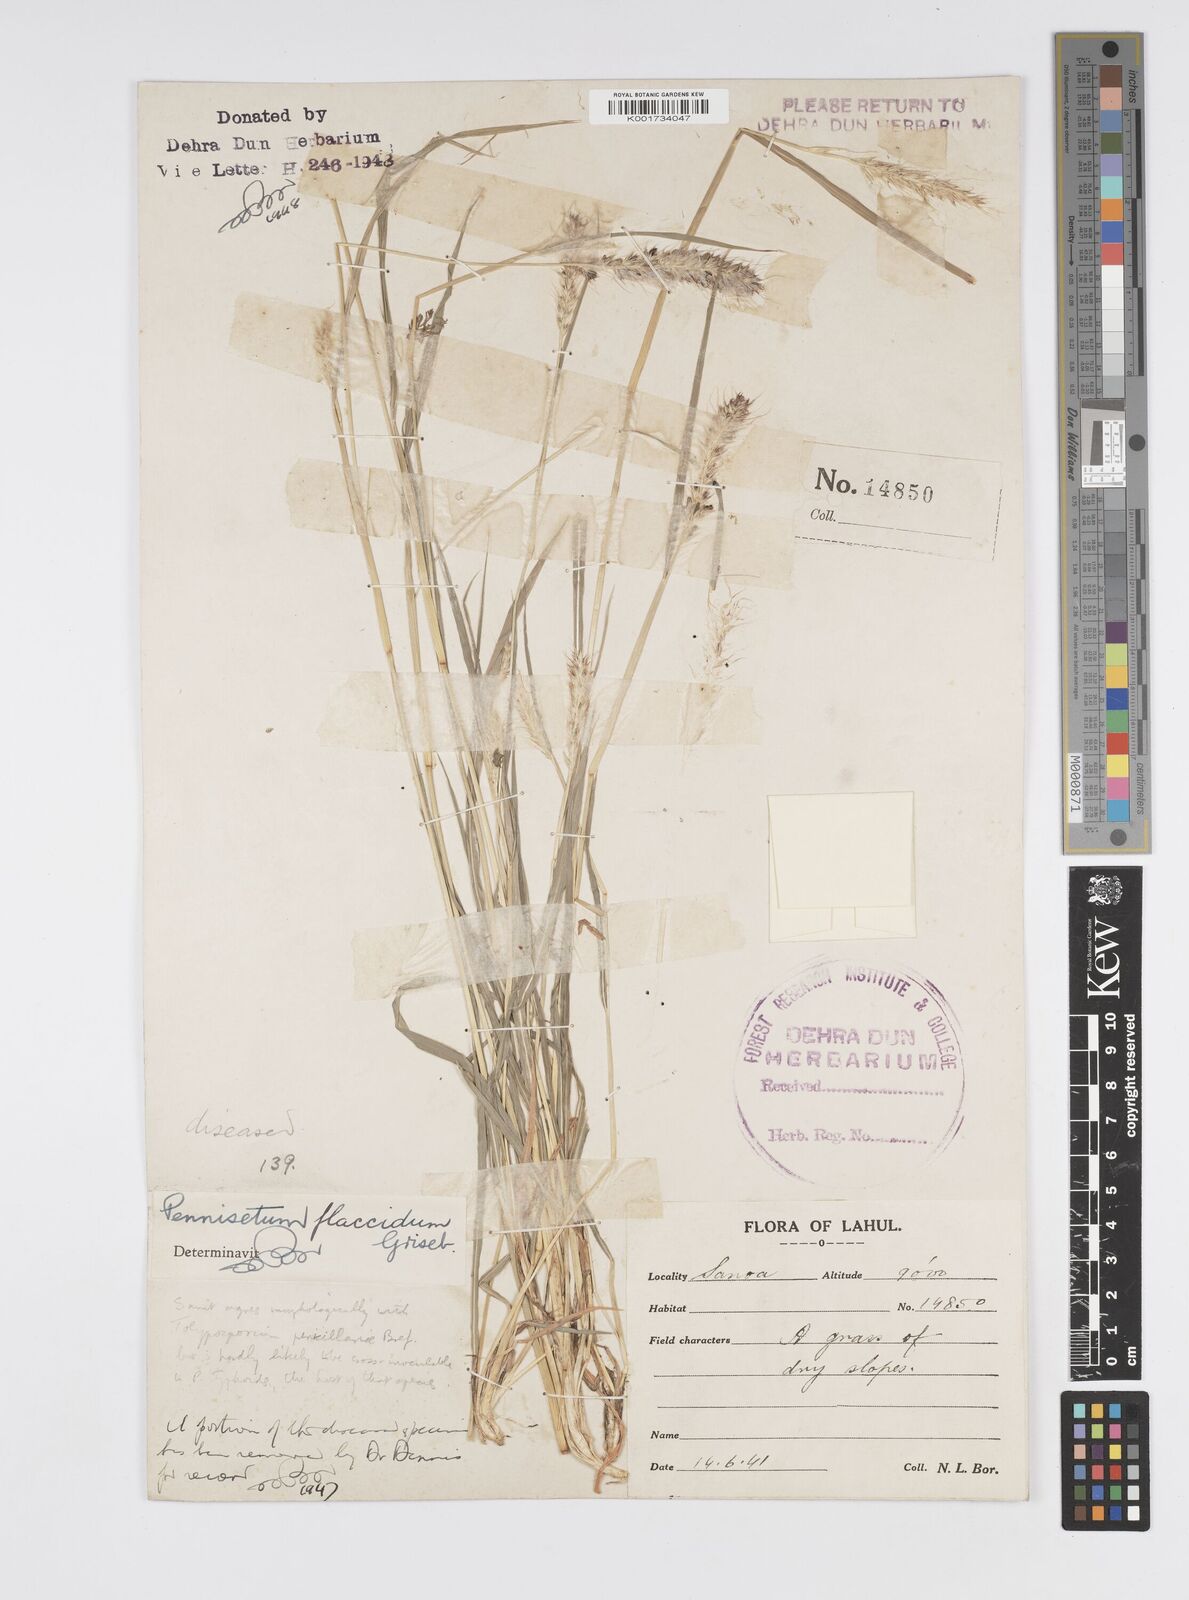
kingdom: Plantae
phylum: Tracheophyta
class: Liliopsida
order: Poales
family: Poaceae
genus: Cenchrus
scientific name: Cenchrus flaccidus
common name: Flaccid grass
